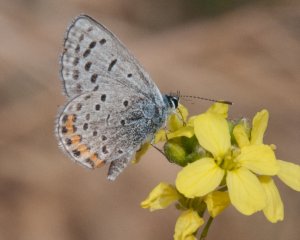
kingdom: Animalia
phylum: Arthropoda
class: Insecta
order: Lepidoptera
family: Lycaenidae
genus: Plebejus
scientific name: Plebejus acmon
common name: Acmon Blue
